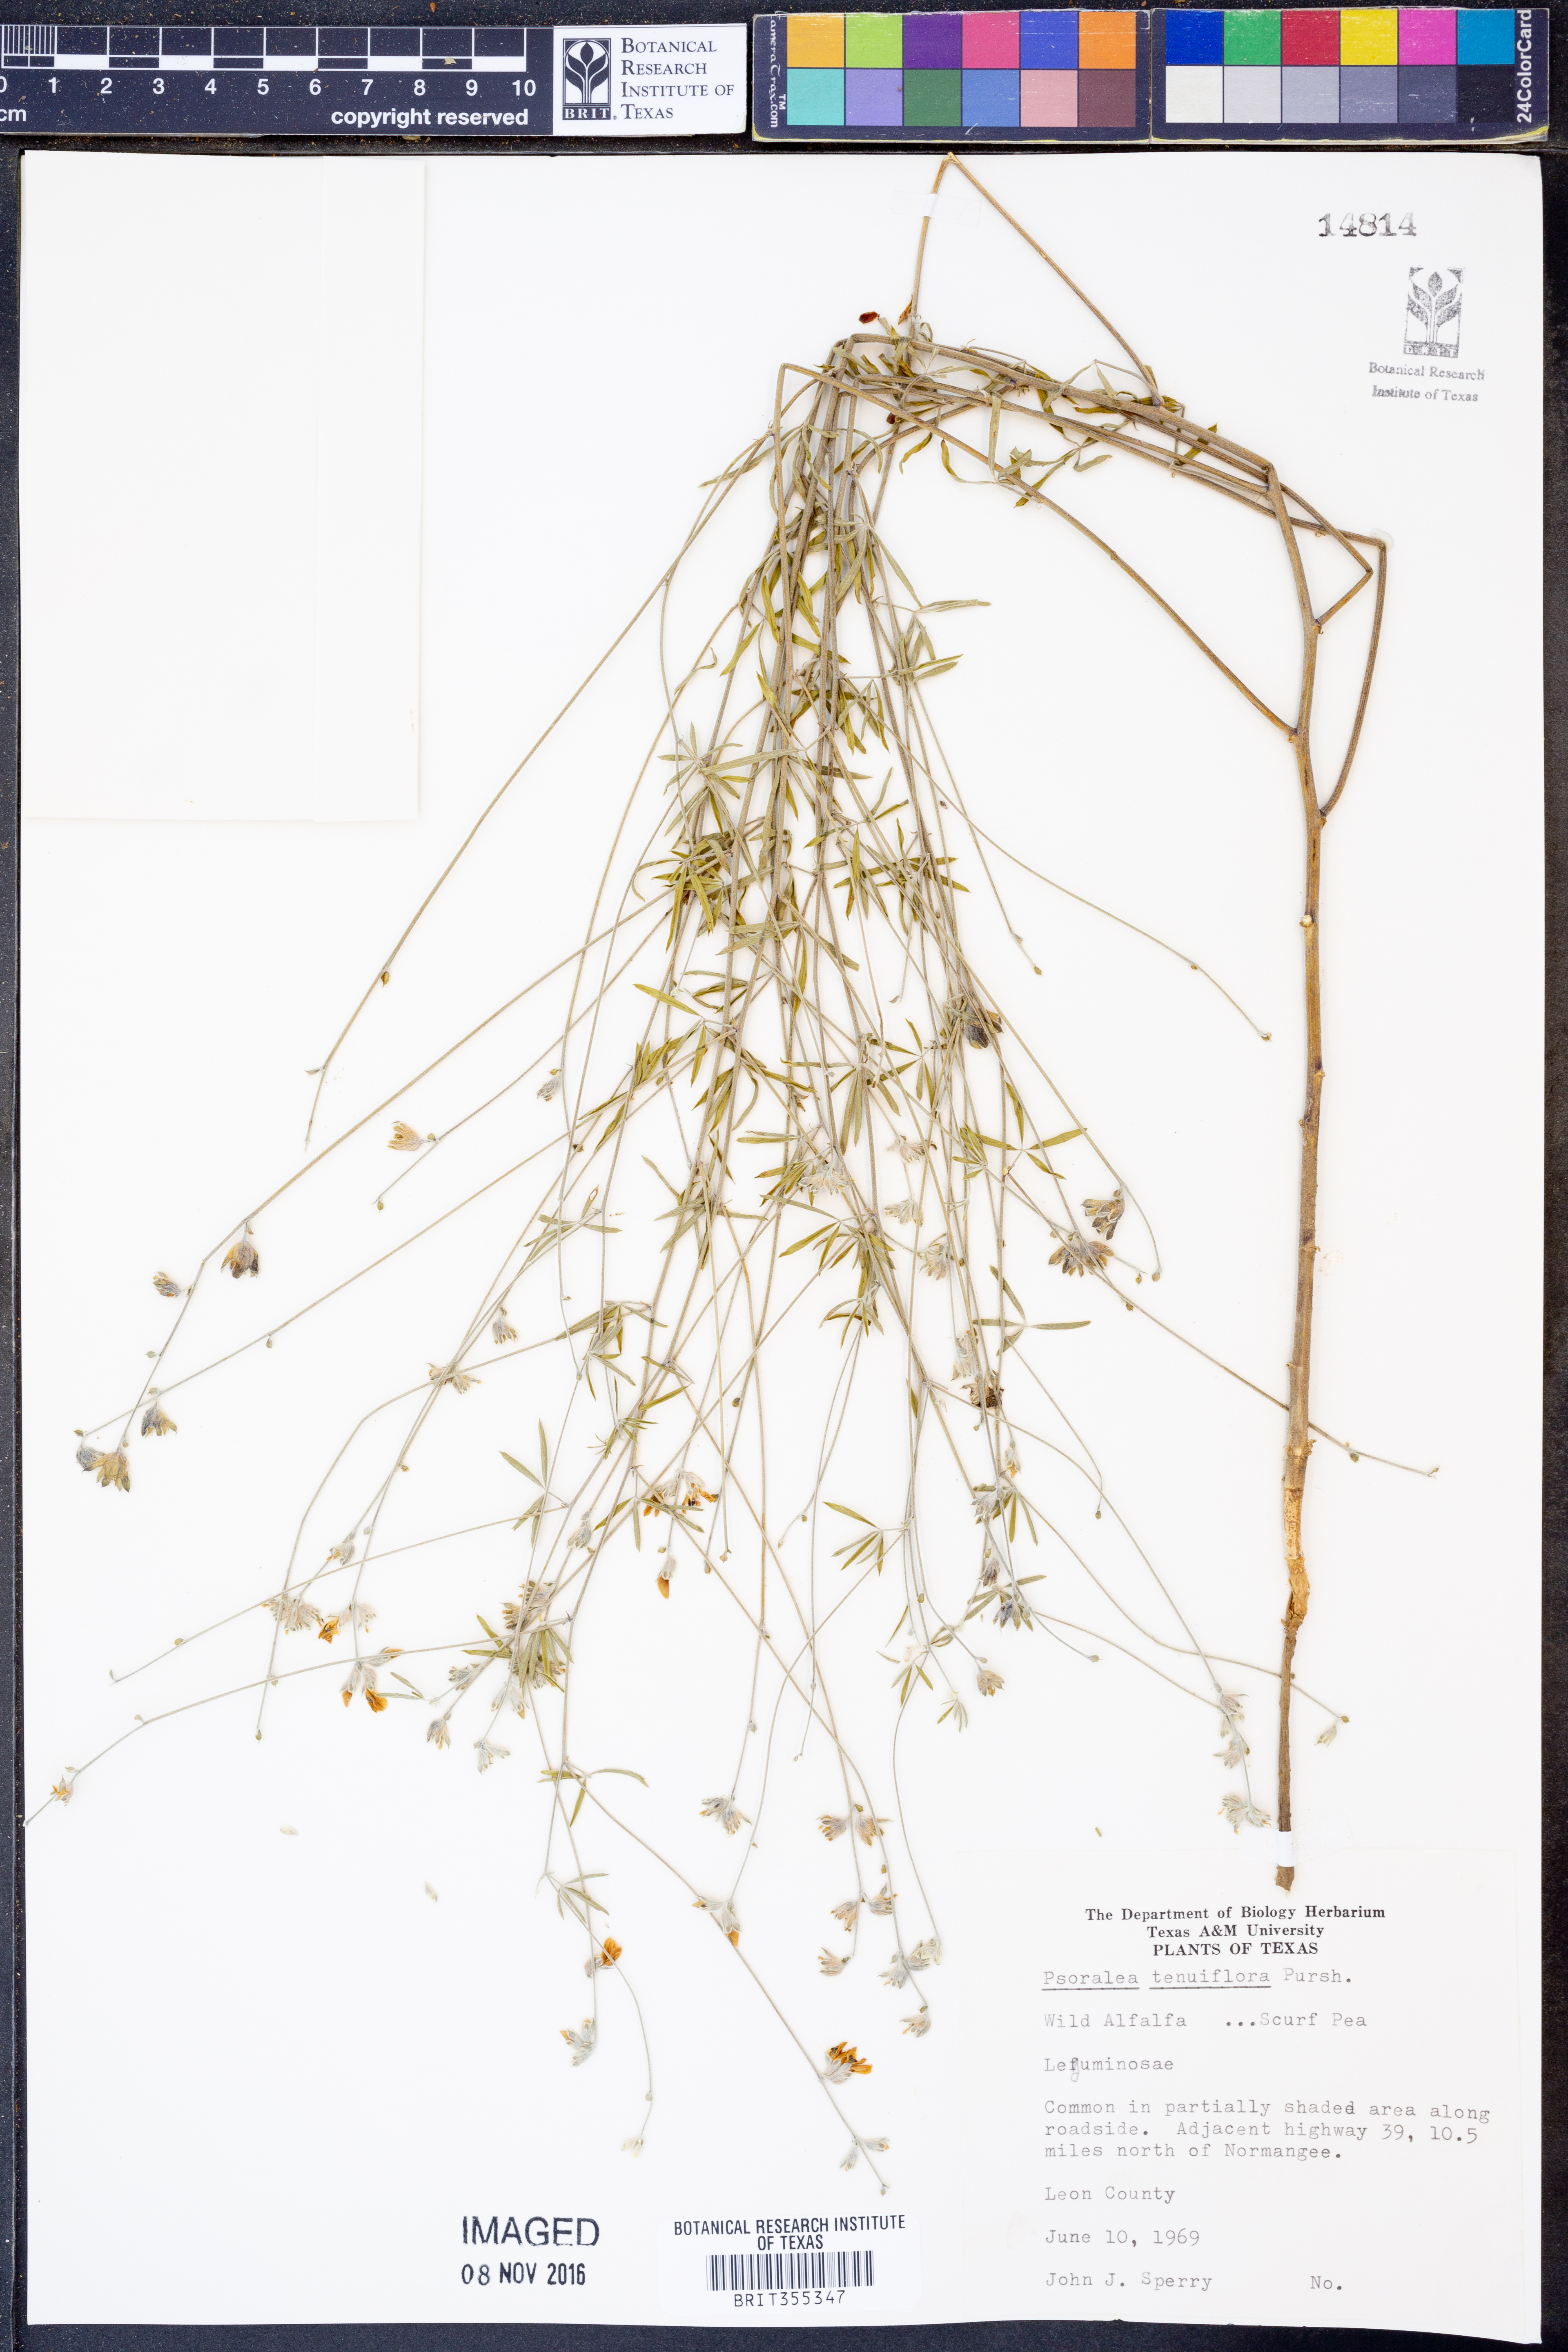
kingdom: Plantae
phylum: Tracheophyta
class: Magnoliopsida
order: Fabales
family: Fabaceae
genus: Pediomelum
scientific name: Pediomelum tenuiflorum
